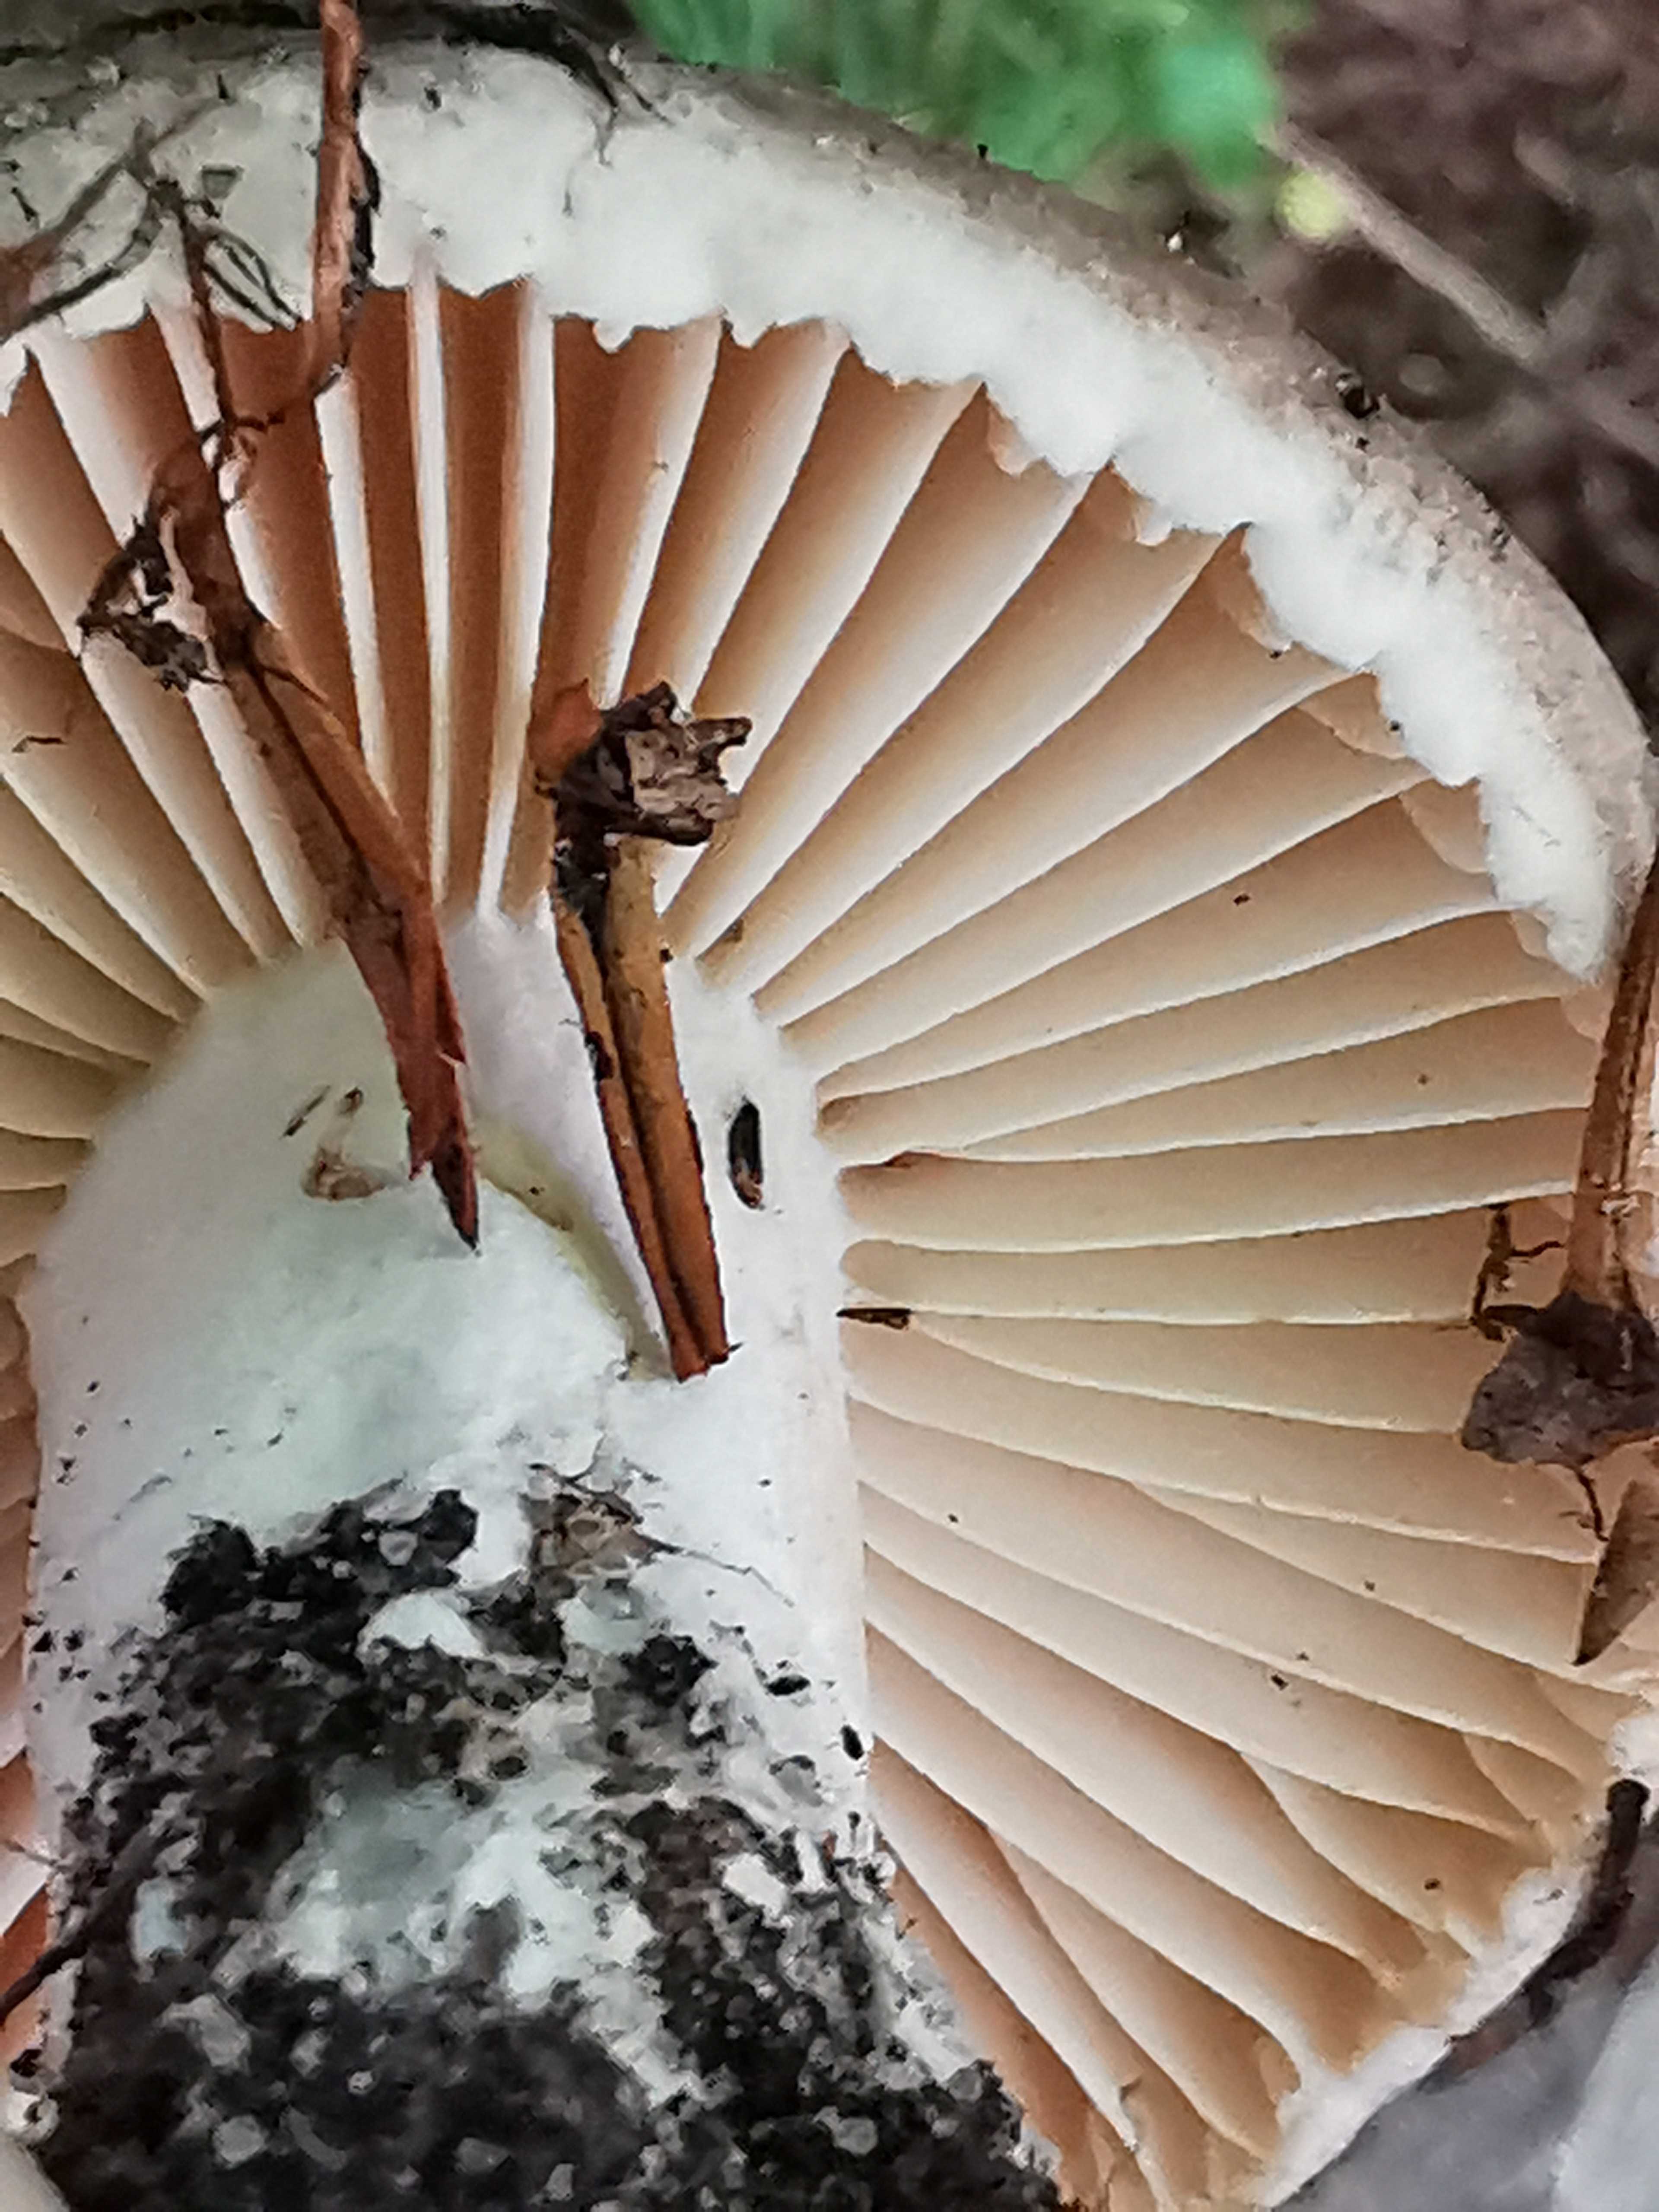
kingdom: Fungi
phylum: Basidiomycota
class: Agaricomycetes
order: Russulales
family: Russulaceae
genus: Russula
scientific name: Russula adusta
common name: sværtende skørhat
